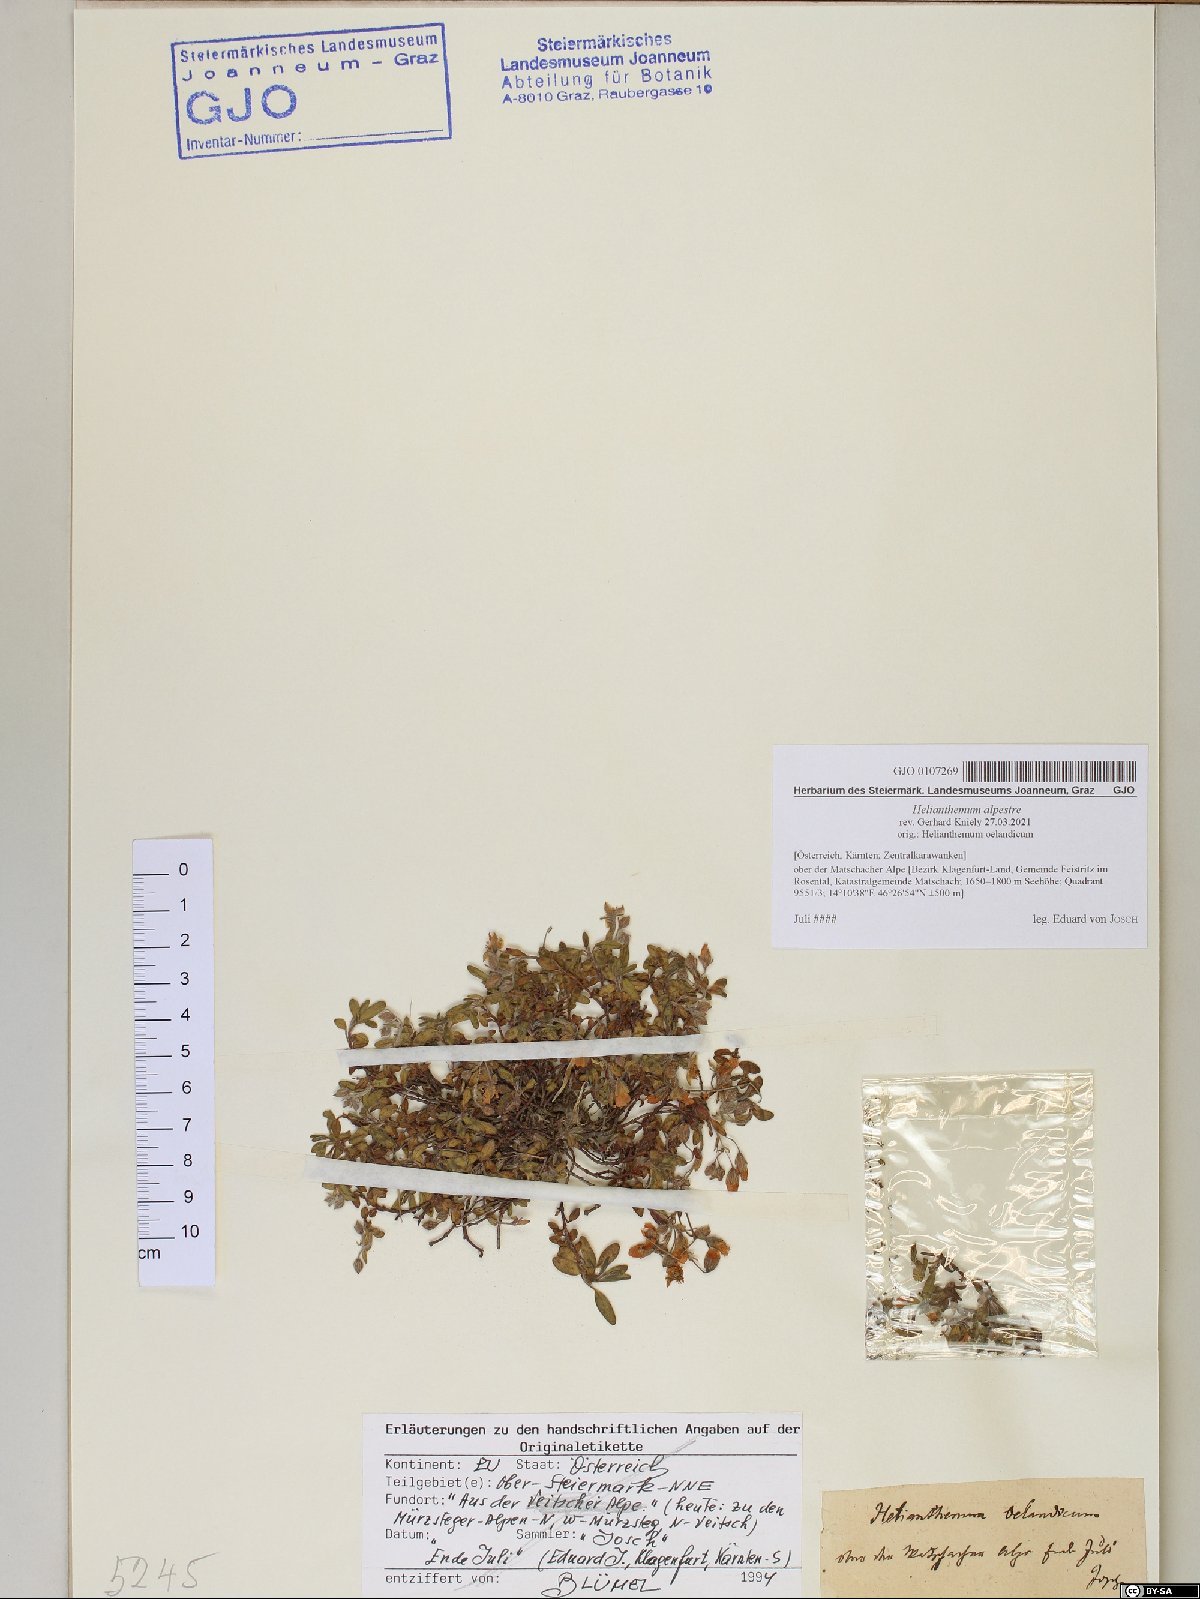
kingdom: Plantae
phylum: Tracheophyta
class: Magnoliopsida
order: Malvales
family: Cistaceae
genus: Helianthemum
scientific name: Helianthemum alpestre
